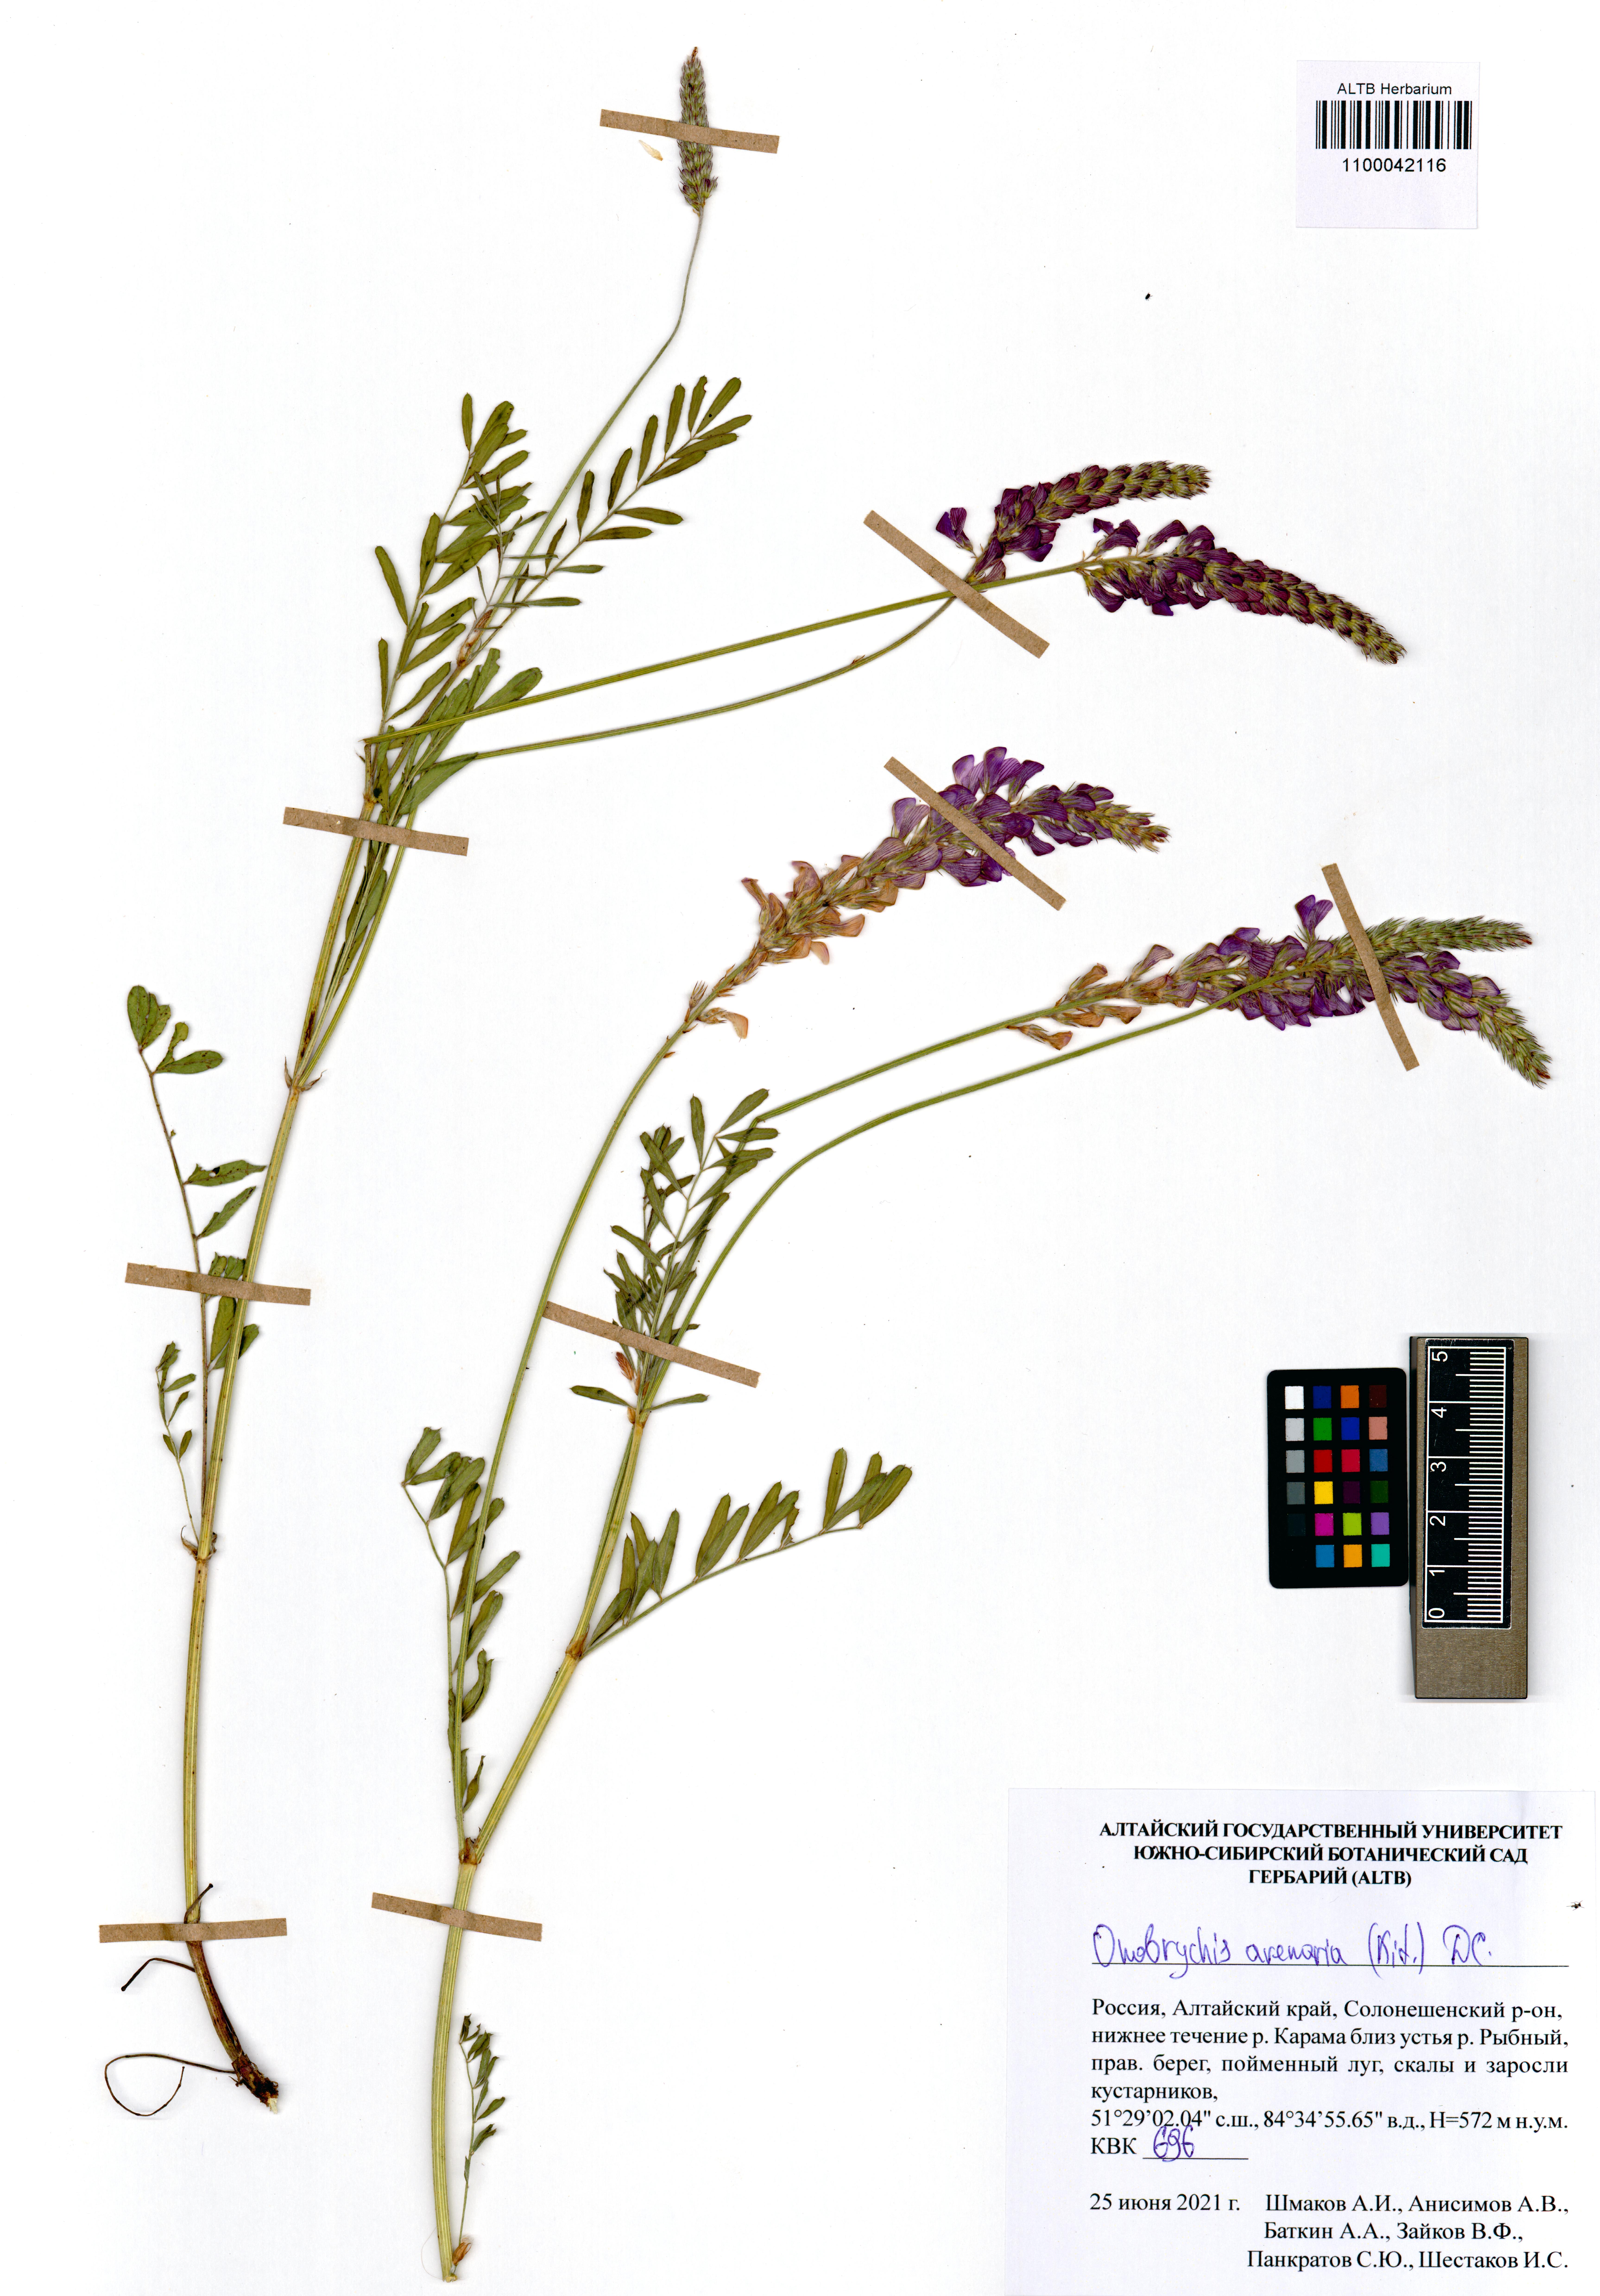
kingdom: Plantae
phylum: Tracheophyta
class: Magnoliopsida
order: Fabales
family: Fabaceae
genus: Onobrychis
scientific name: Onobrychis arenaria
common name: Sand esparcet
